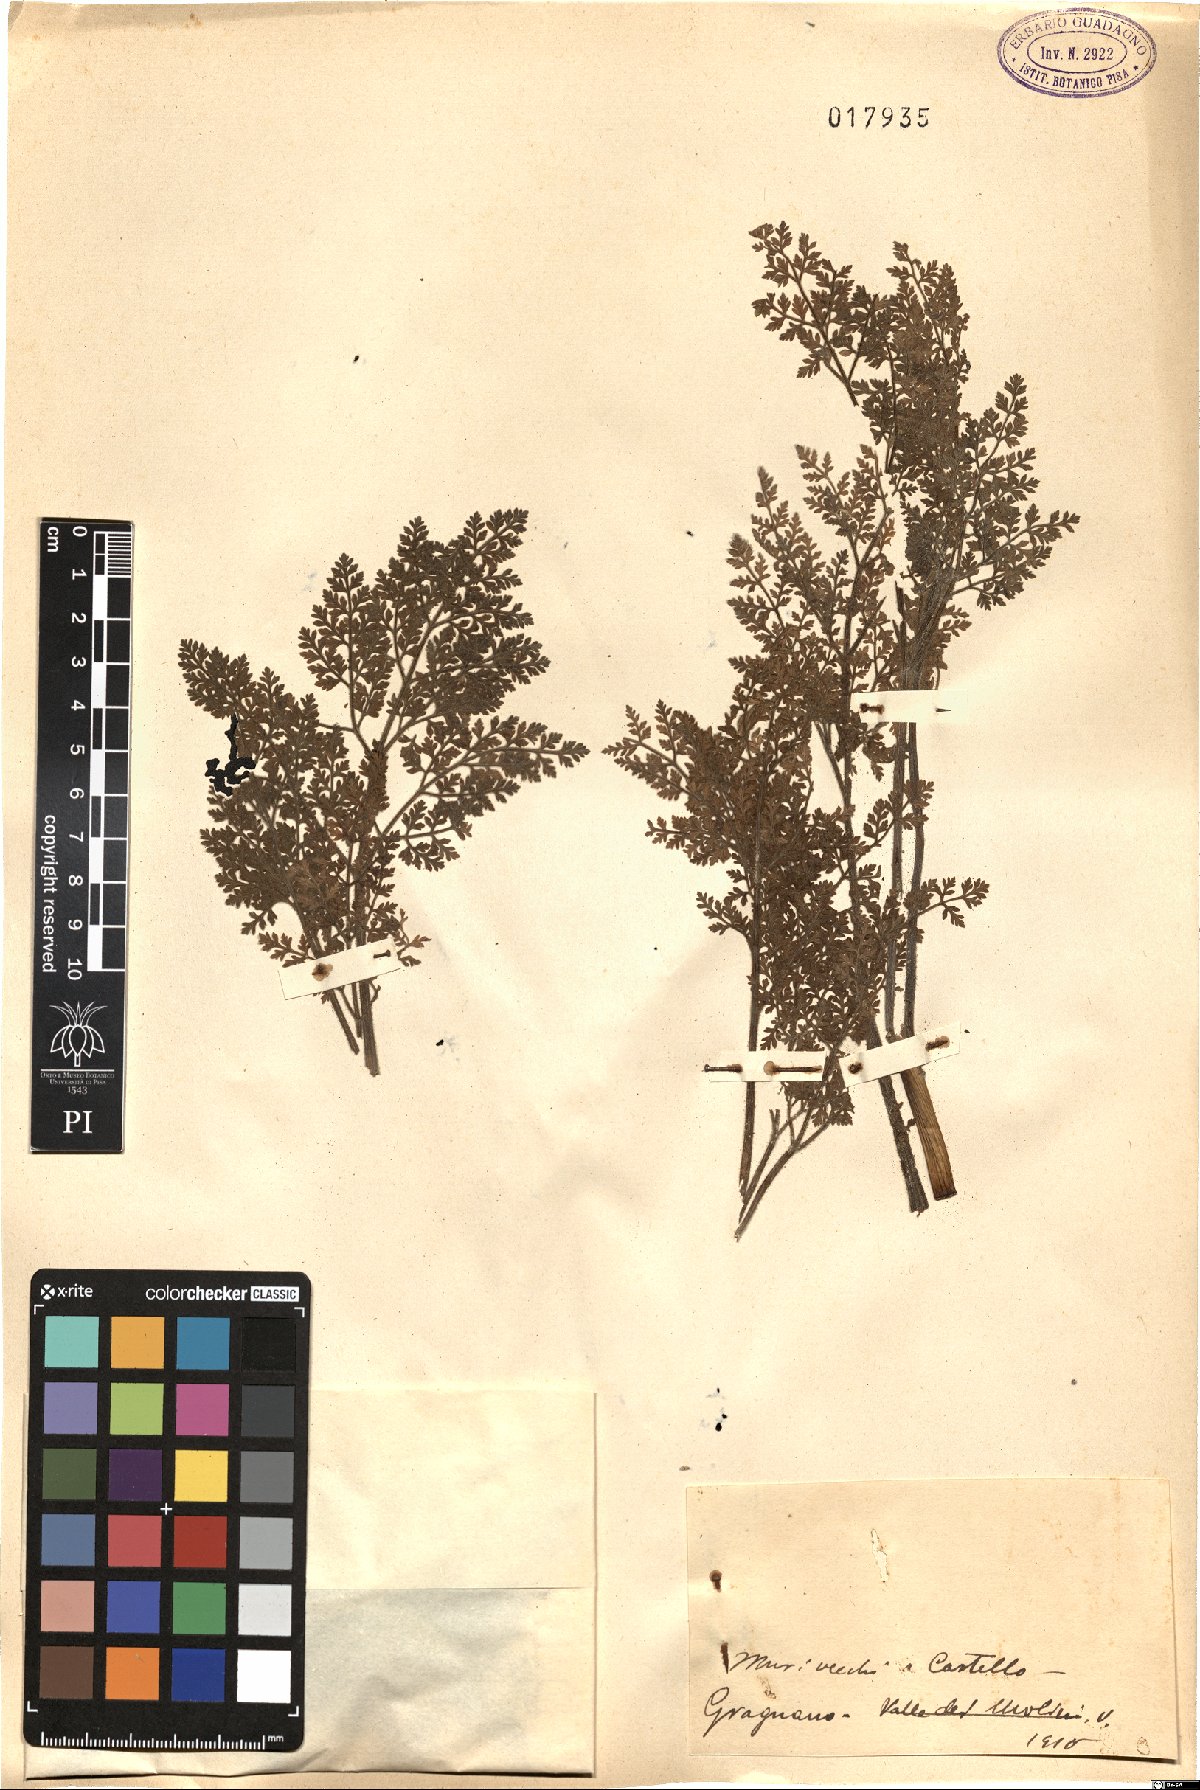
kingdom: Plantae
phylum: Tracheophyta
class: Magnoliopsida
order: Apiales
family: Apiaceae
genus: Athamanta
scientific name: Athamanta
